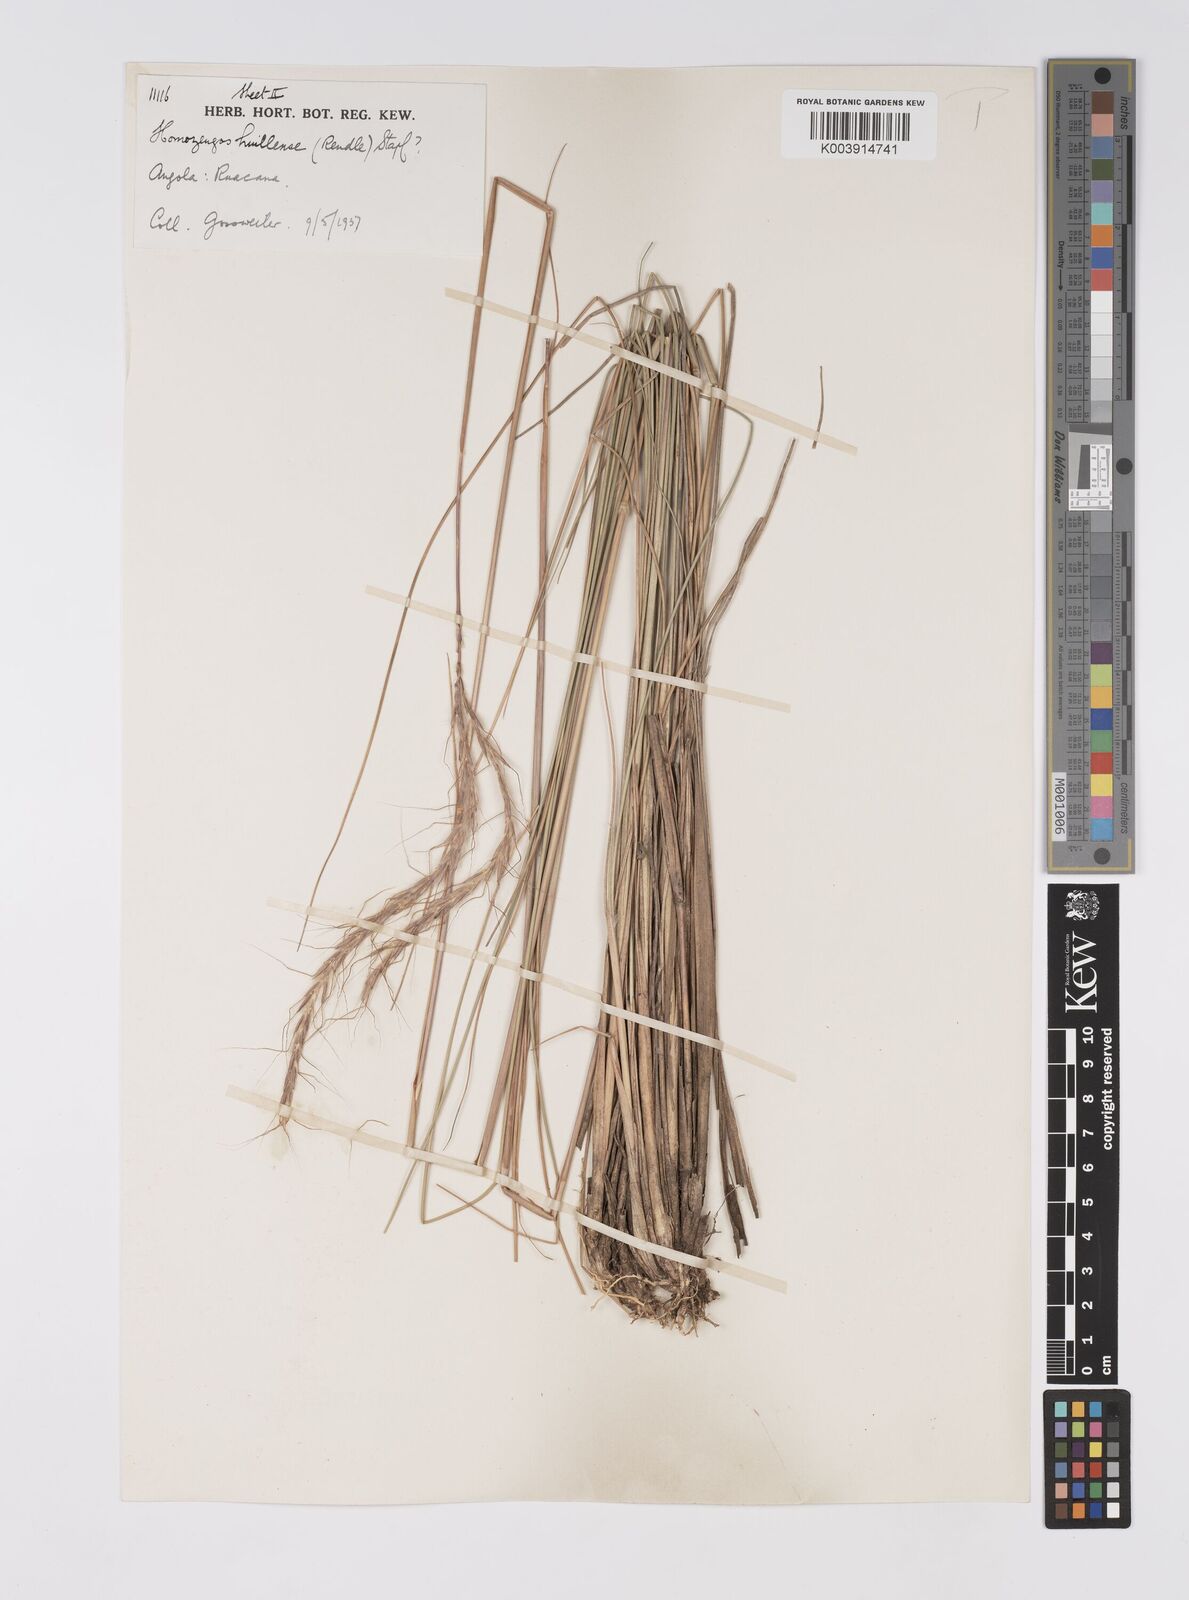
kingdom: Plantae
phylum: Tracheophyta
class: Liliopsida
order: Poales
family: Poaceae
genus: Homozeugos
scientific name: Homozeugos huillense
